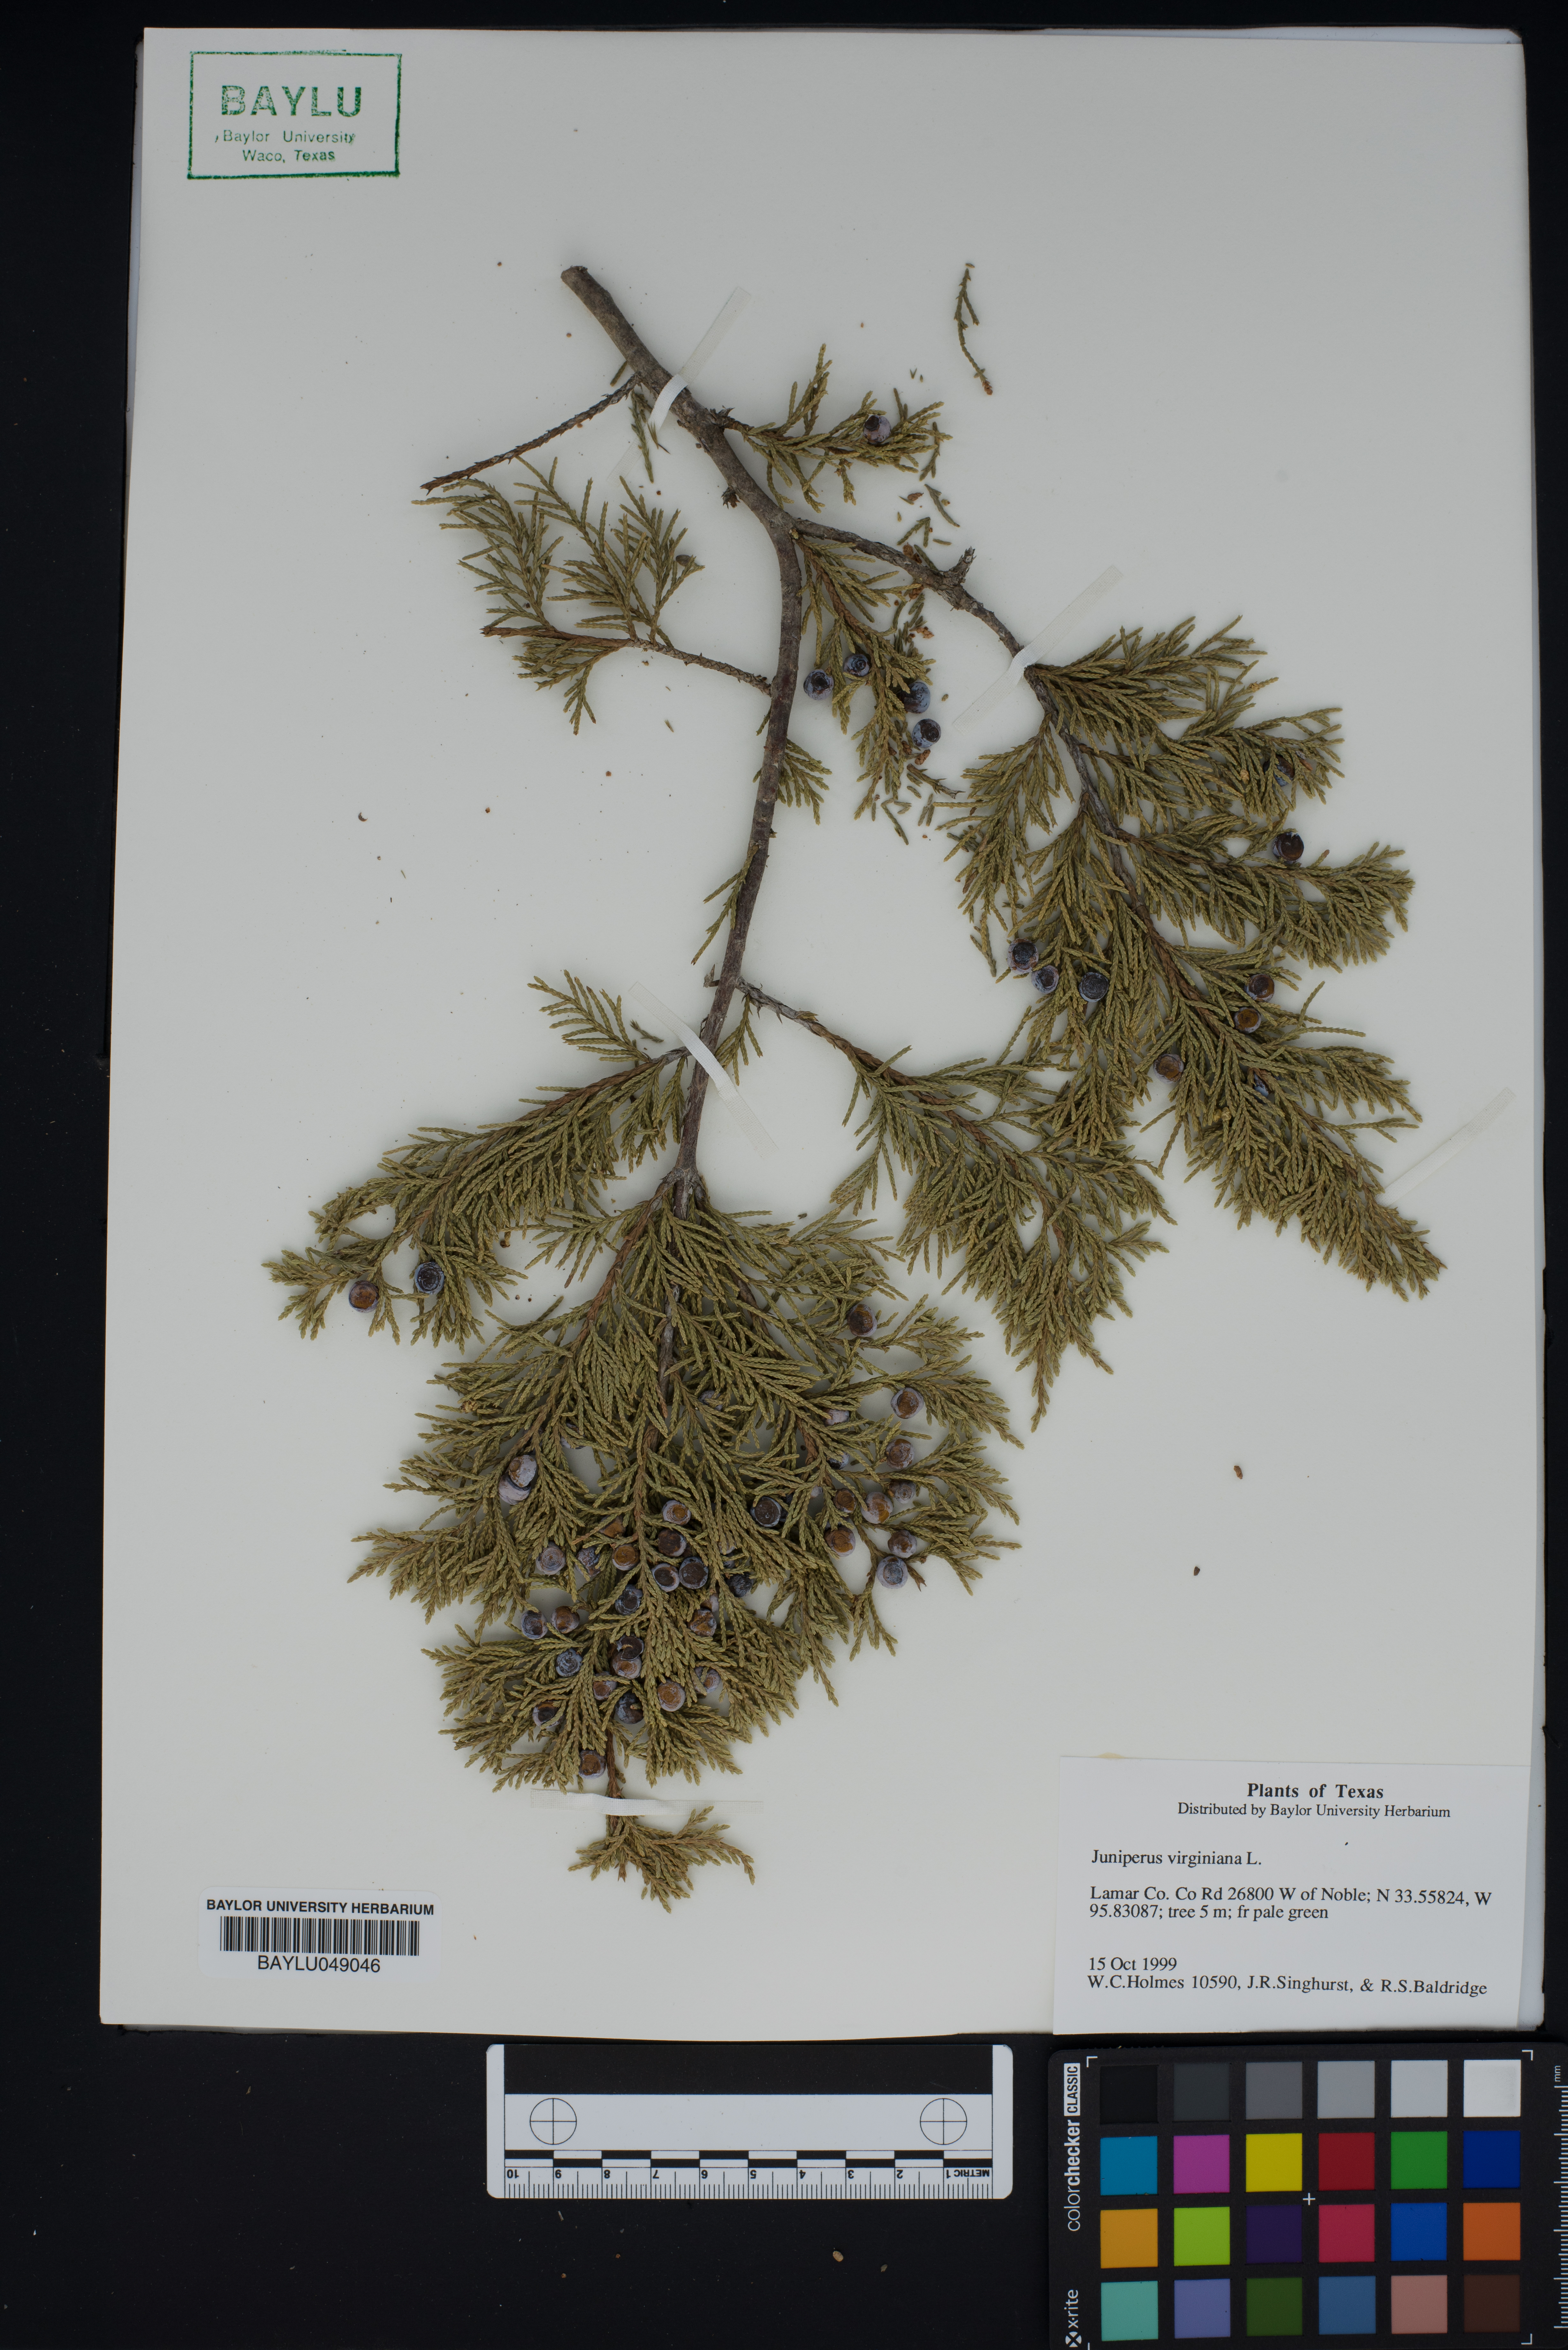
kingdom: Plantae
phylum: Tracheophyta
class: Pinopsida
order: Pinales
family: Cupressaceae
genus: Juniperus
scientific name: Juniperus virginiana
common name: Red juniper
